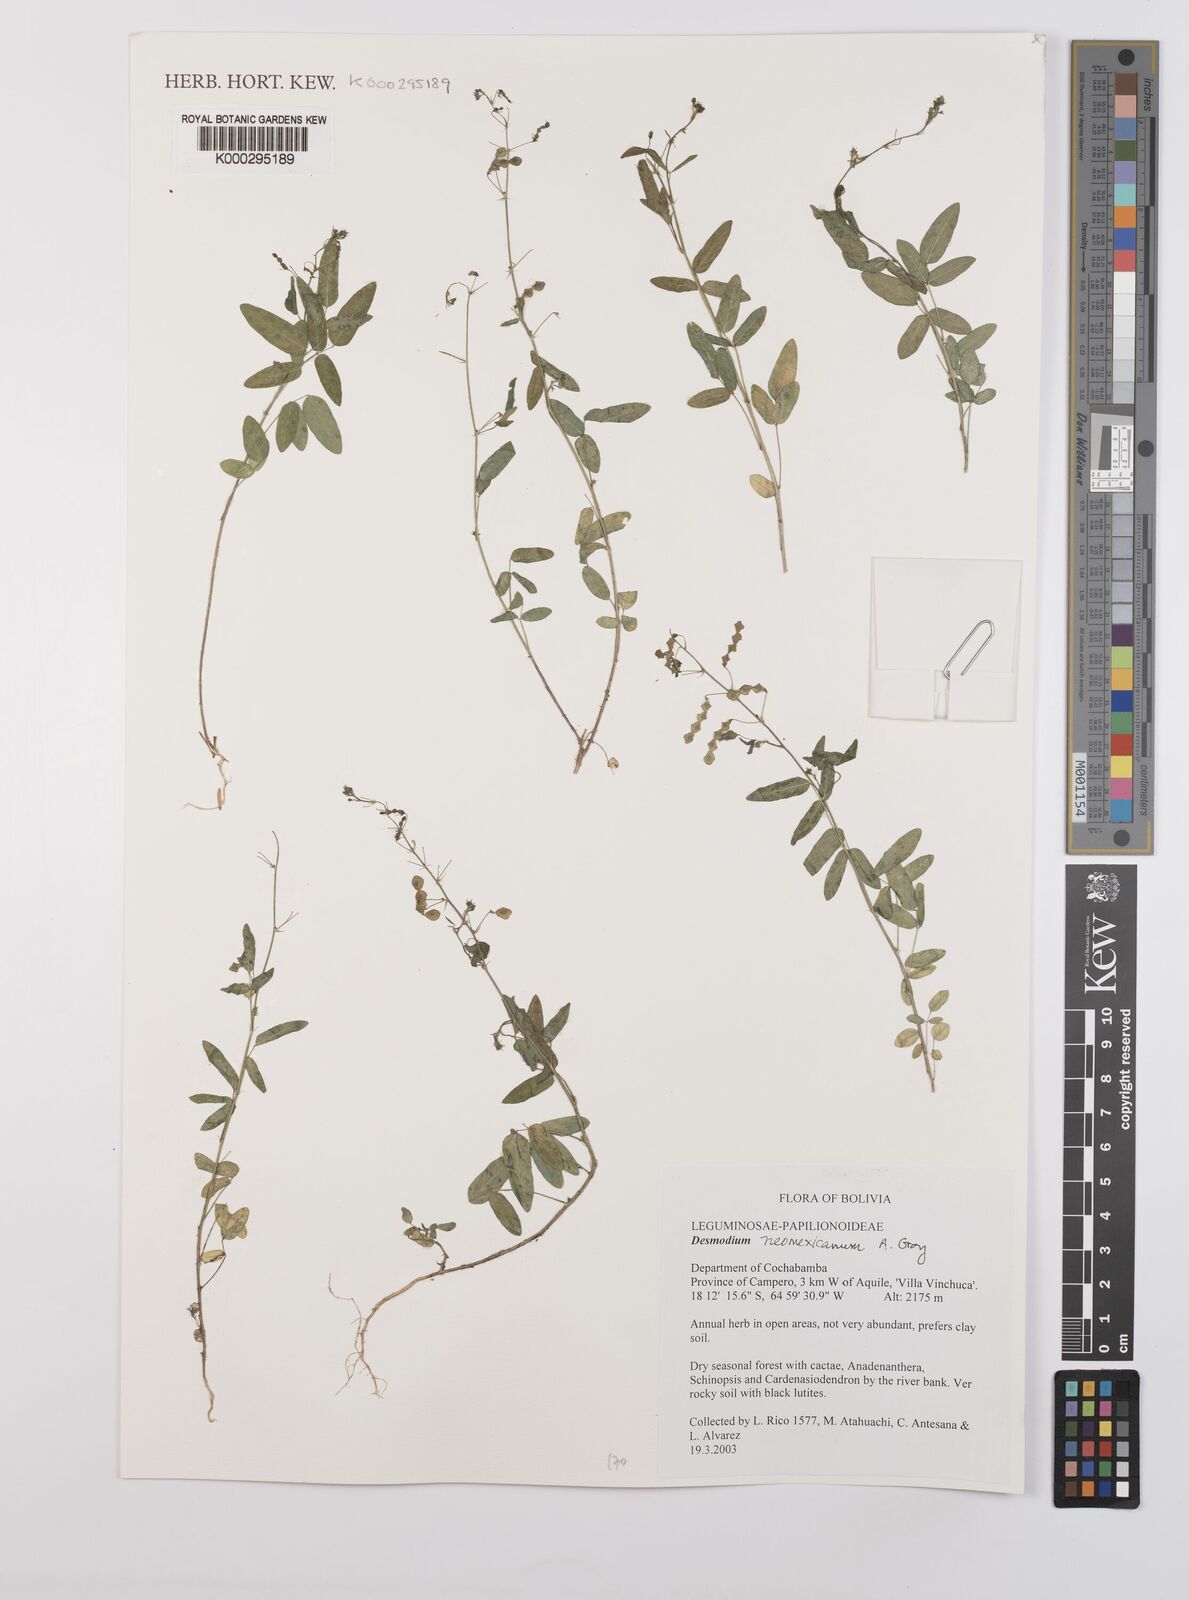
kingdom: Plantae
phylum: Tracheophyta
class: Magnoliopsida
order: Fabales
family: Fabaceae
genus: Desmodium
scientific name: Desmodium procumbens
